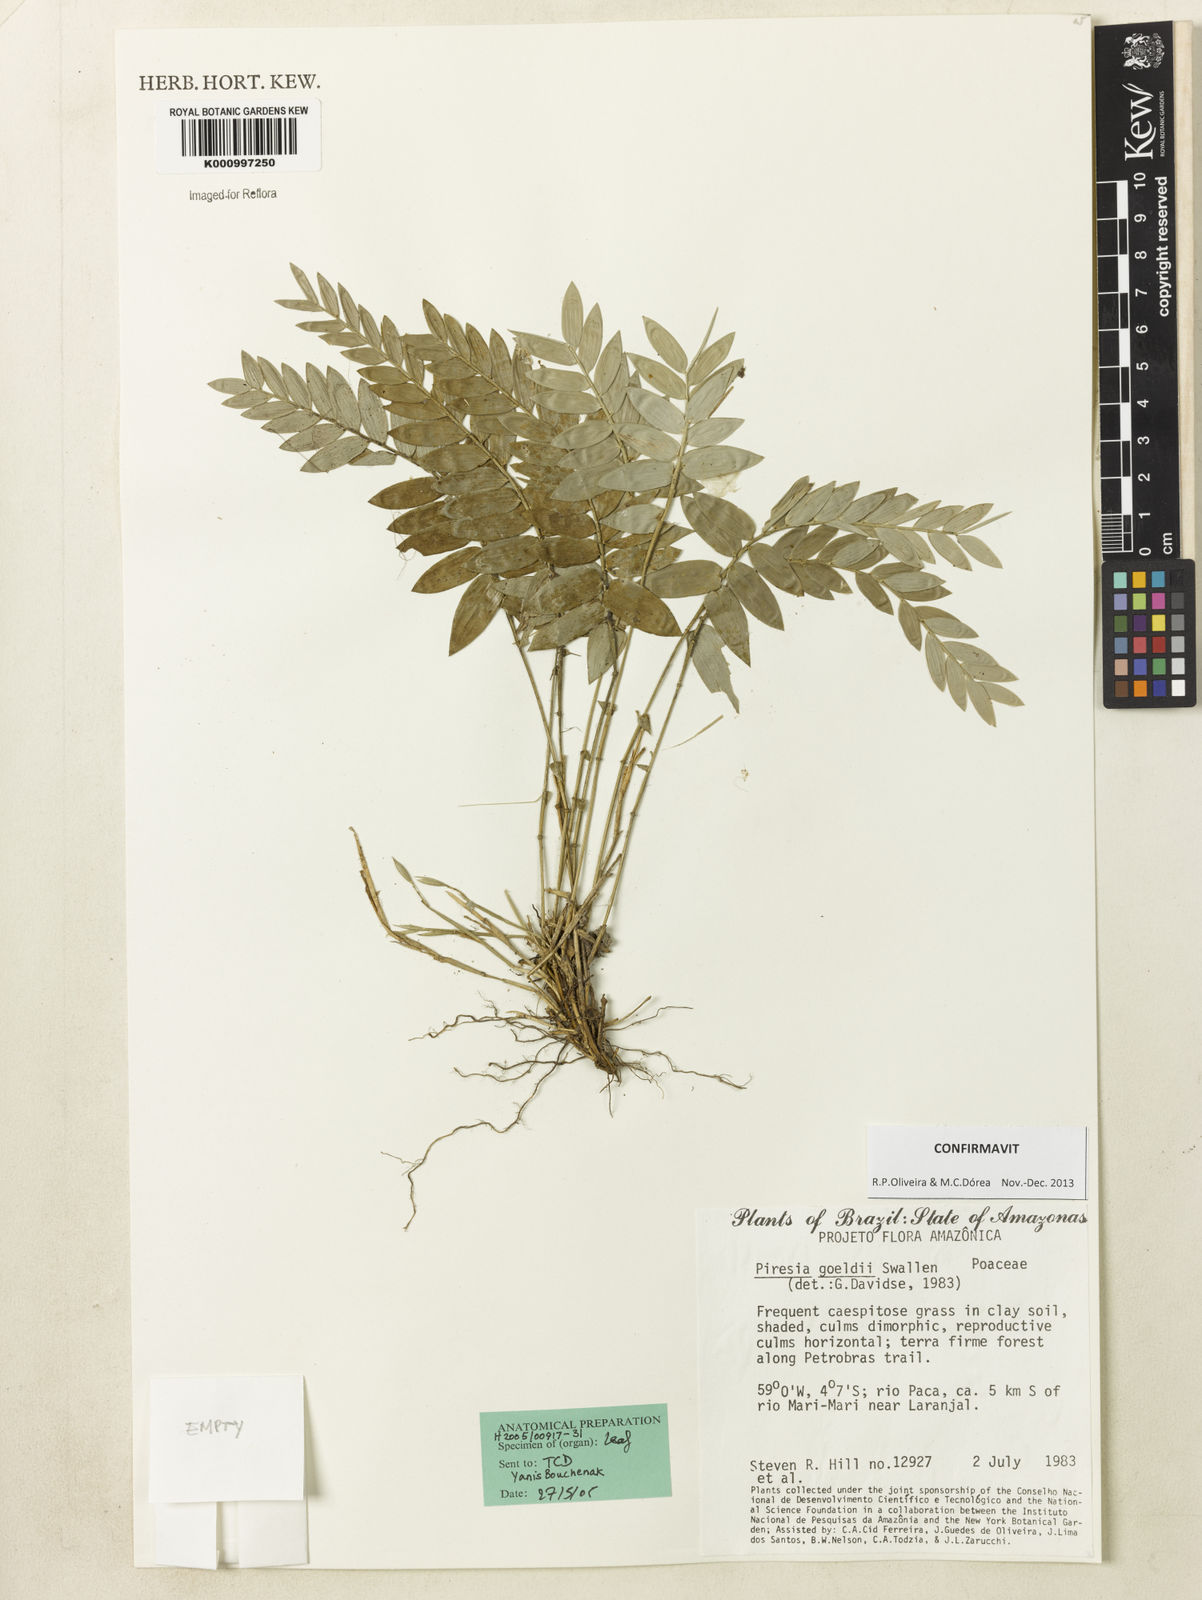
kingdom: Plantae
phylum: Tracheophyta
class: Liliopsida
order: Poales
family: Poaceae
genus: Piresia
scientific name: Piresia goeldii
